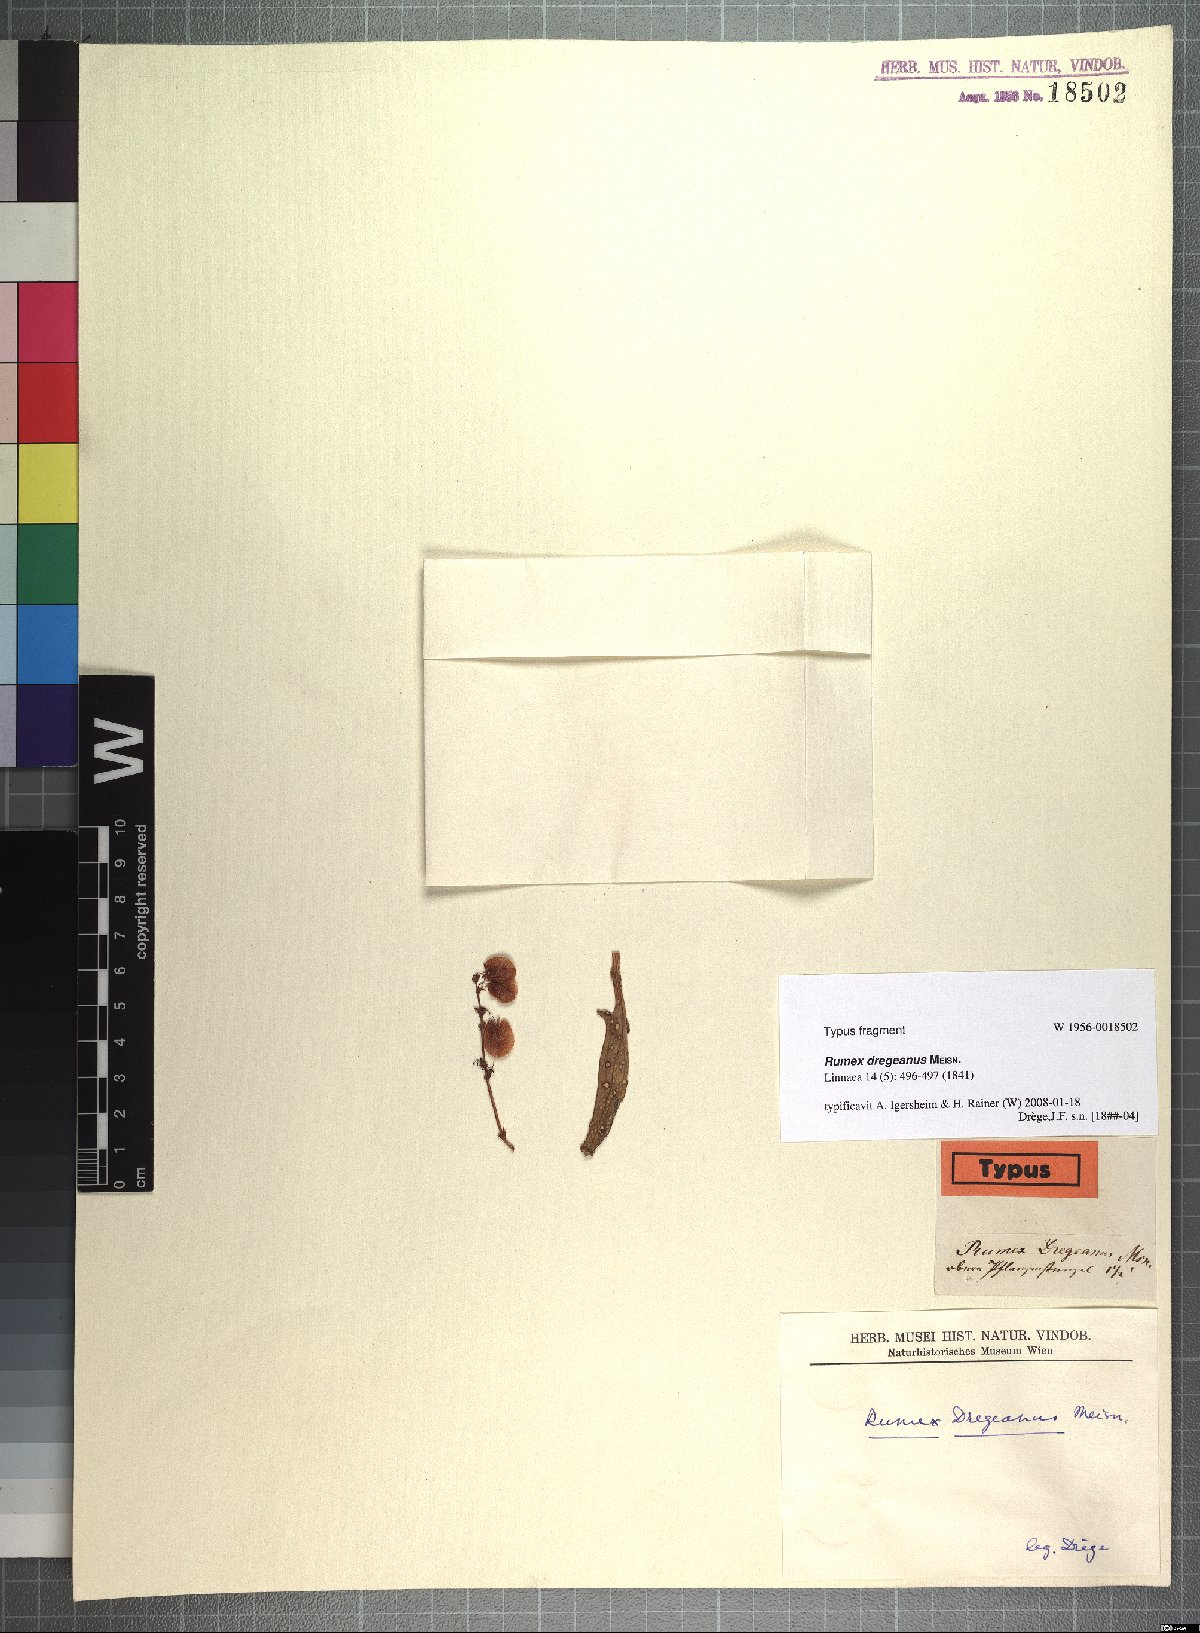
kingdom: Plantae
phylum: Tracheophyta
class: Magnoliopsida
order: Caryophyllales
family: Polygonaceae
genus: Rumex
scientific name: Rumex dregeanus
